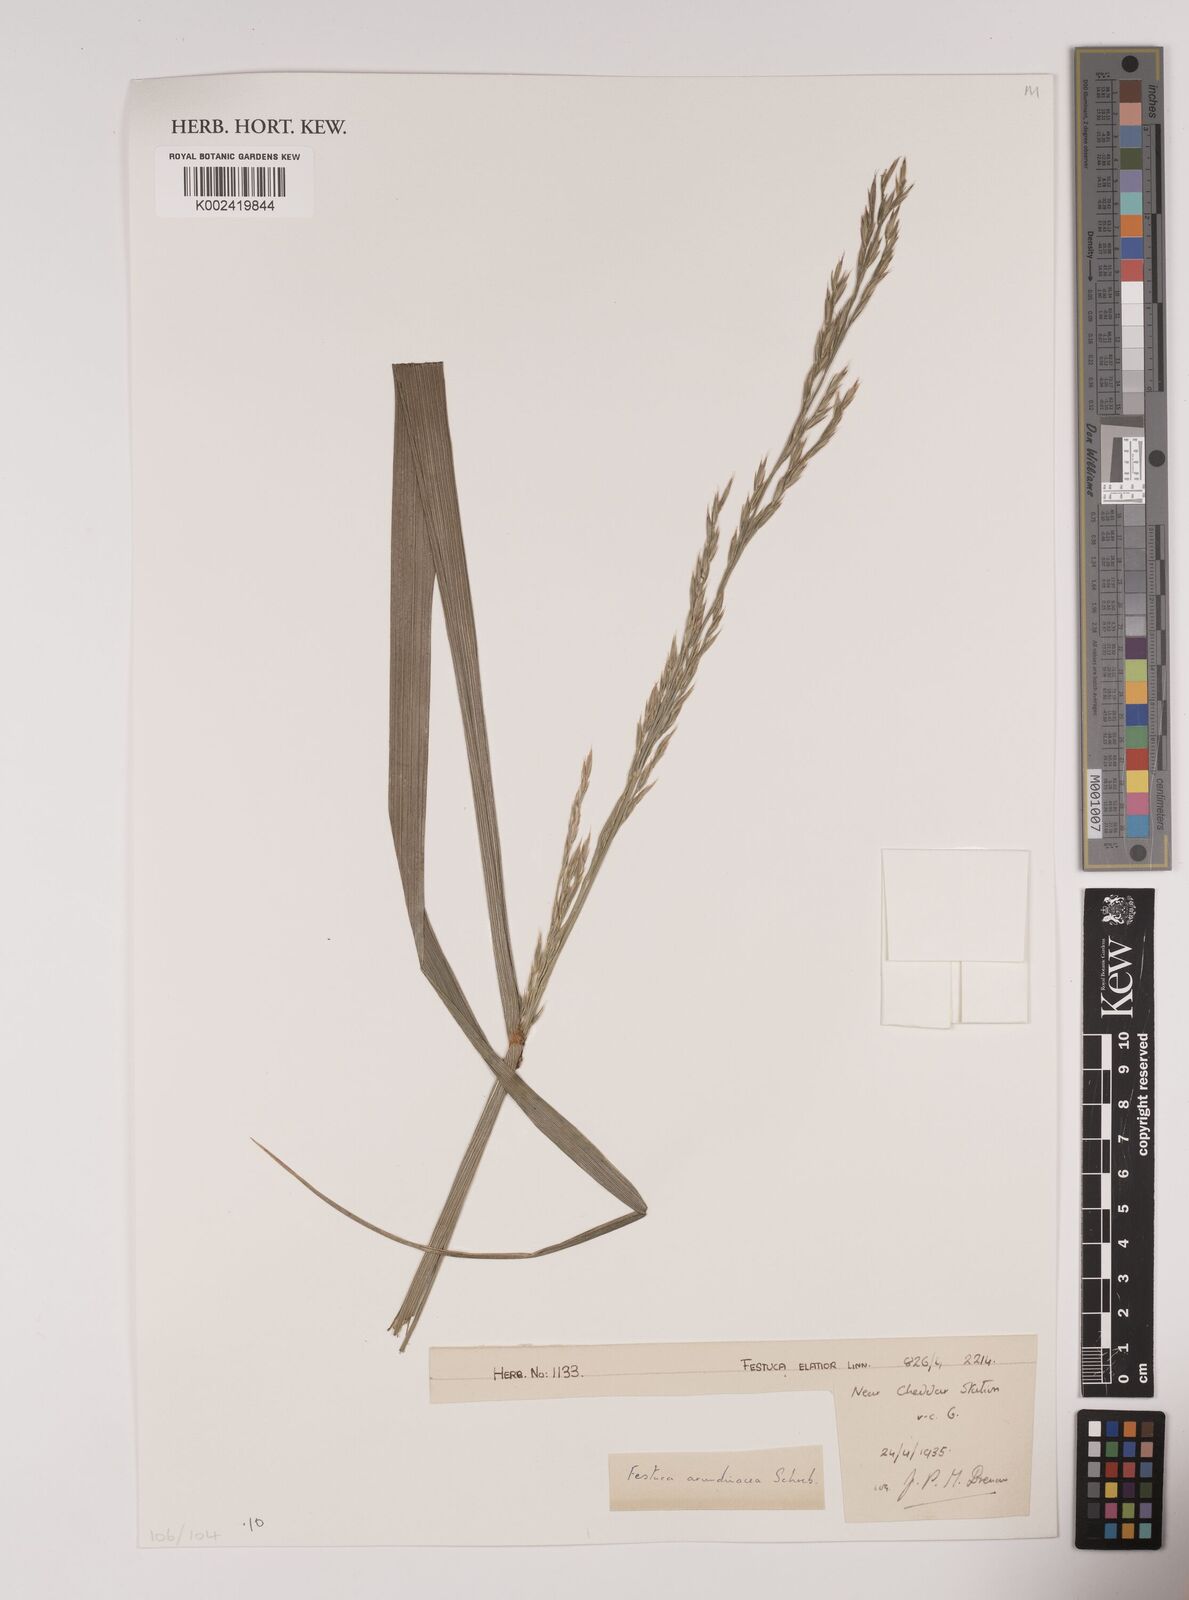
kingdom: Plantae
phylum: Tracheophyta
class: Liliopsida
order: Poales
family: Poaceae
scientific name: Poaceae
